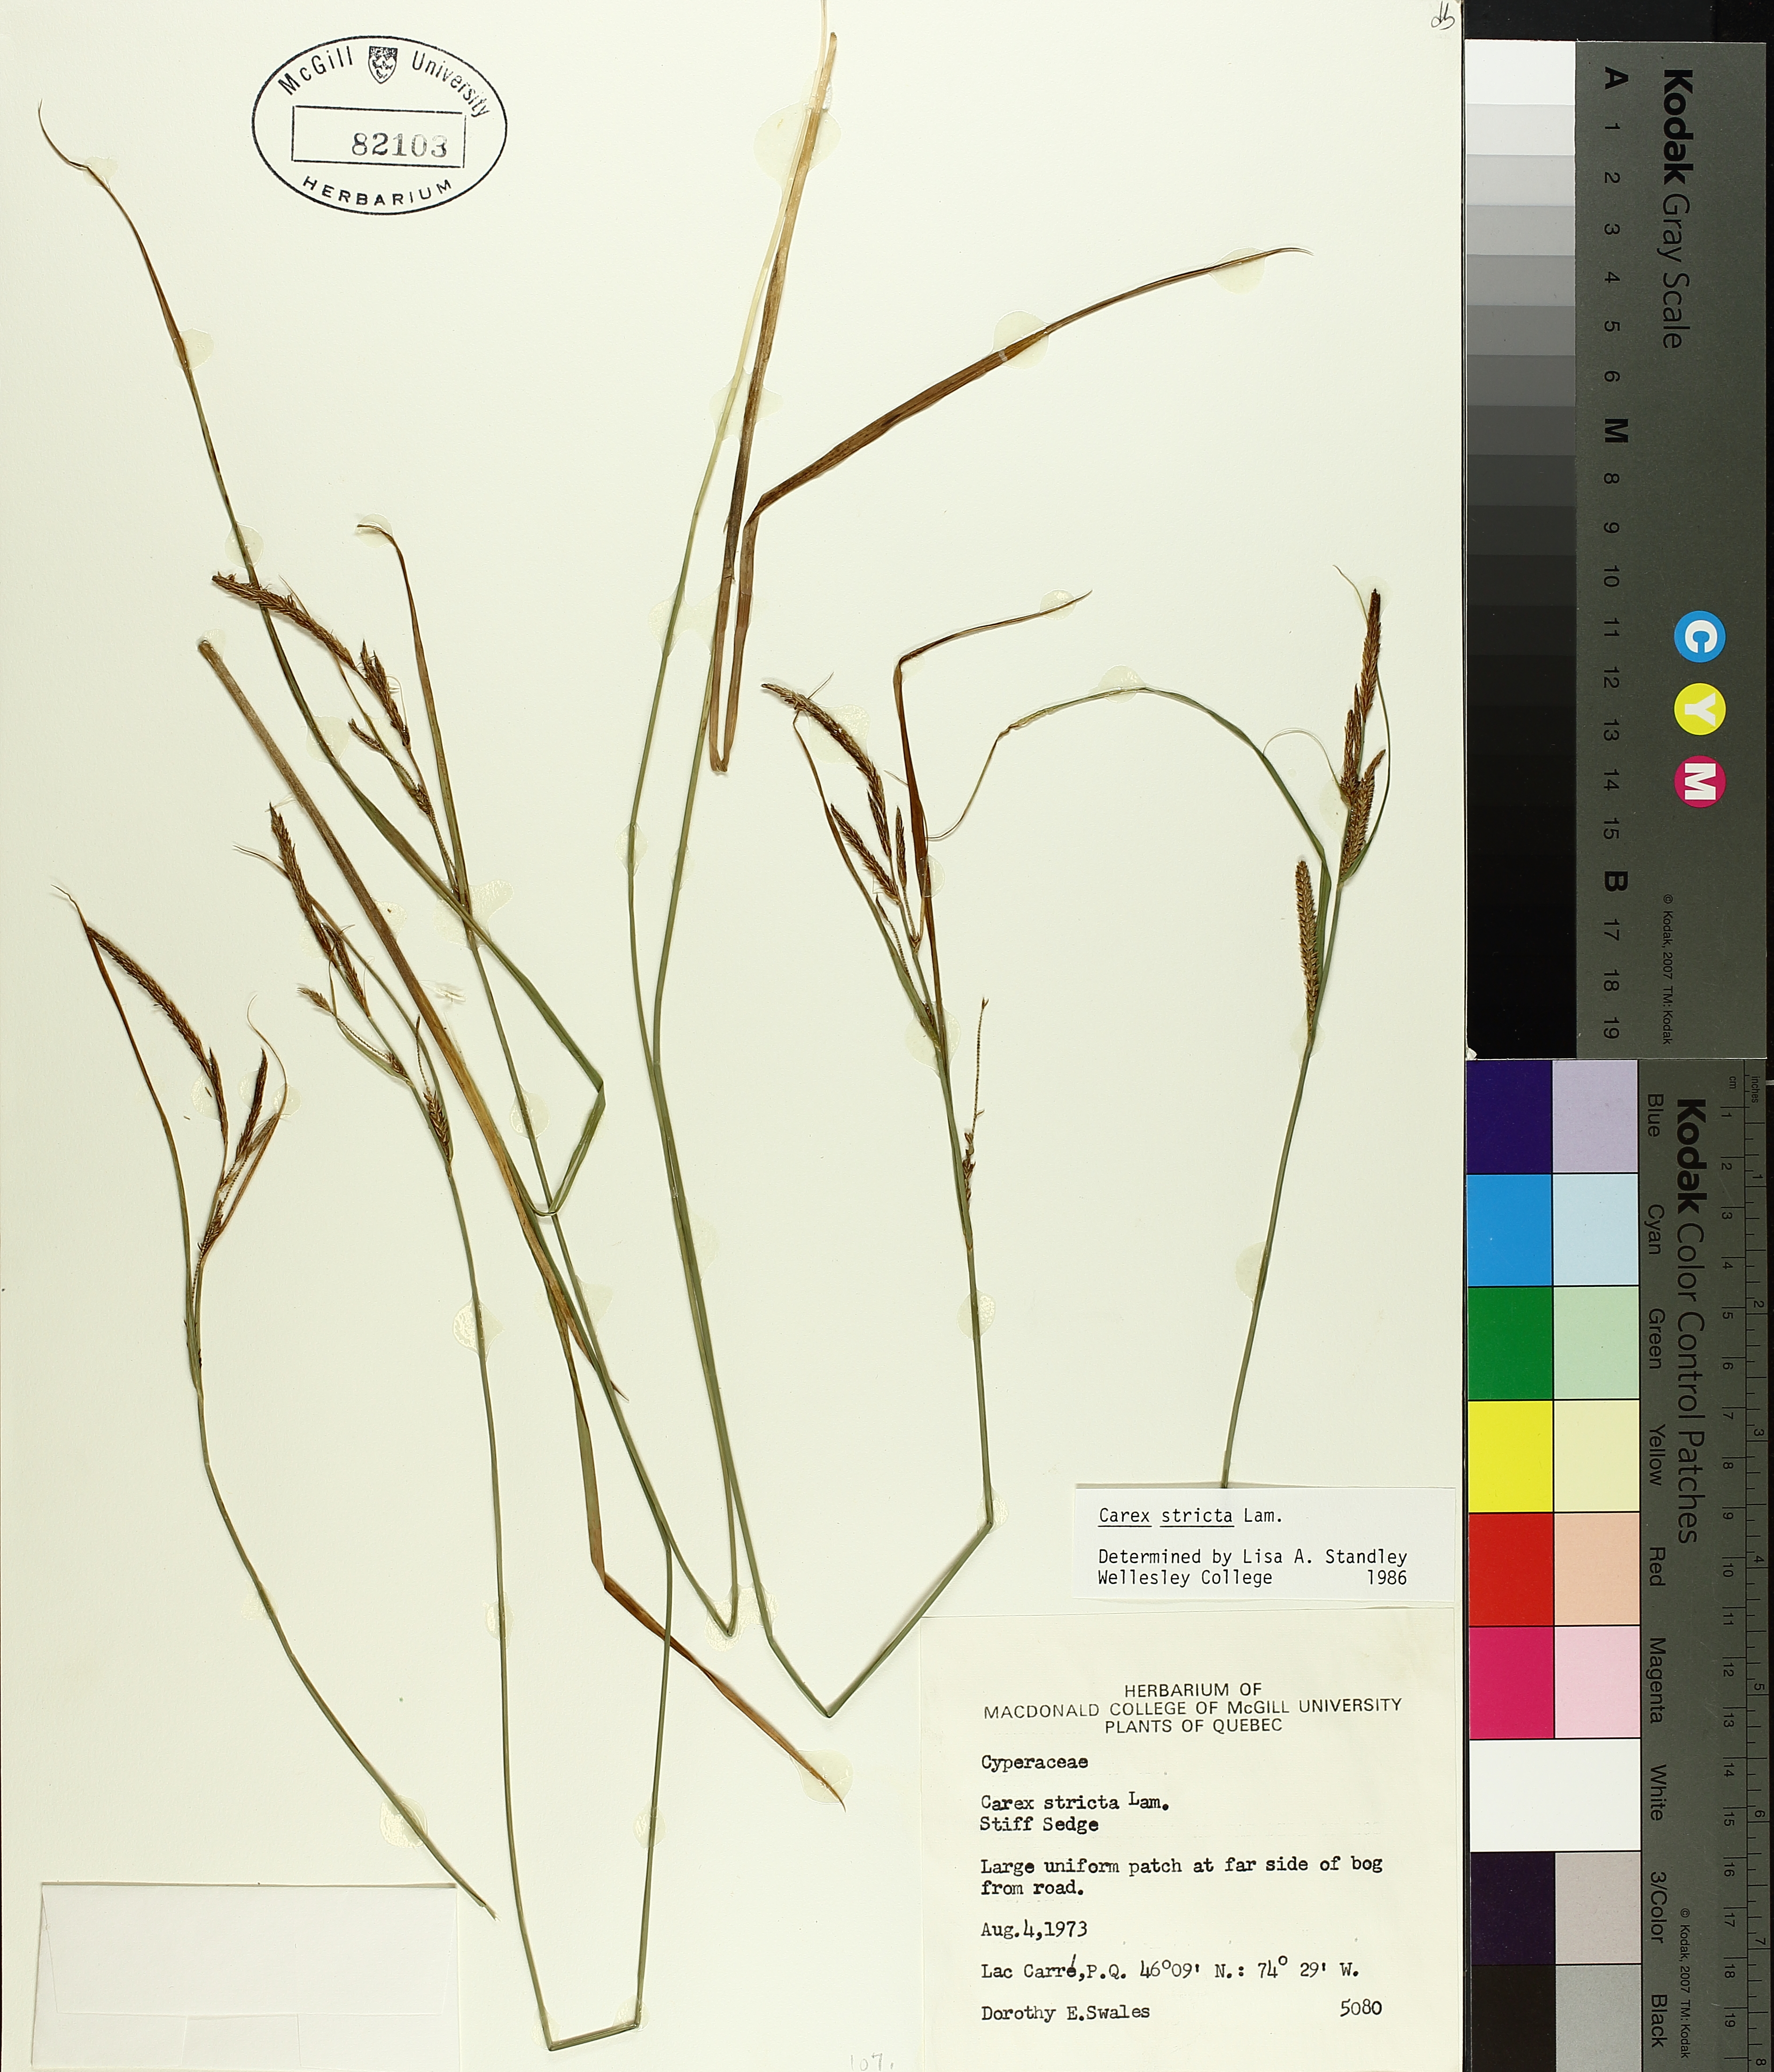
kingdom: Plantae
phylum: Tracheophyta
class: Liliopsida
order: Poales
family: Cyperaceae
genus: Carex
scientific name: Carex stricta
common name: Hummock sedge
